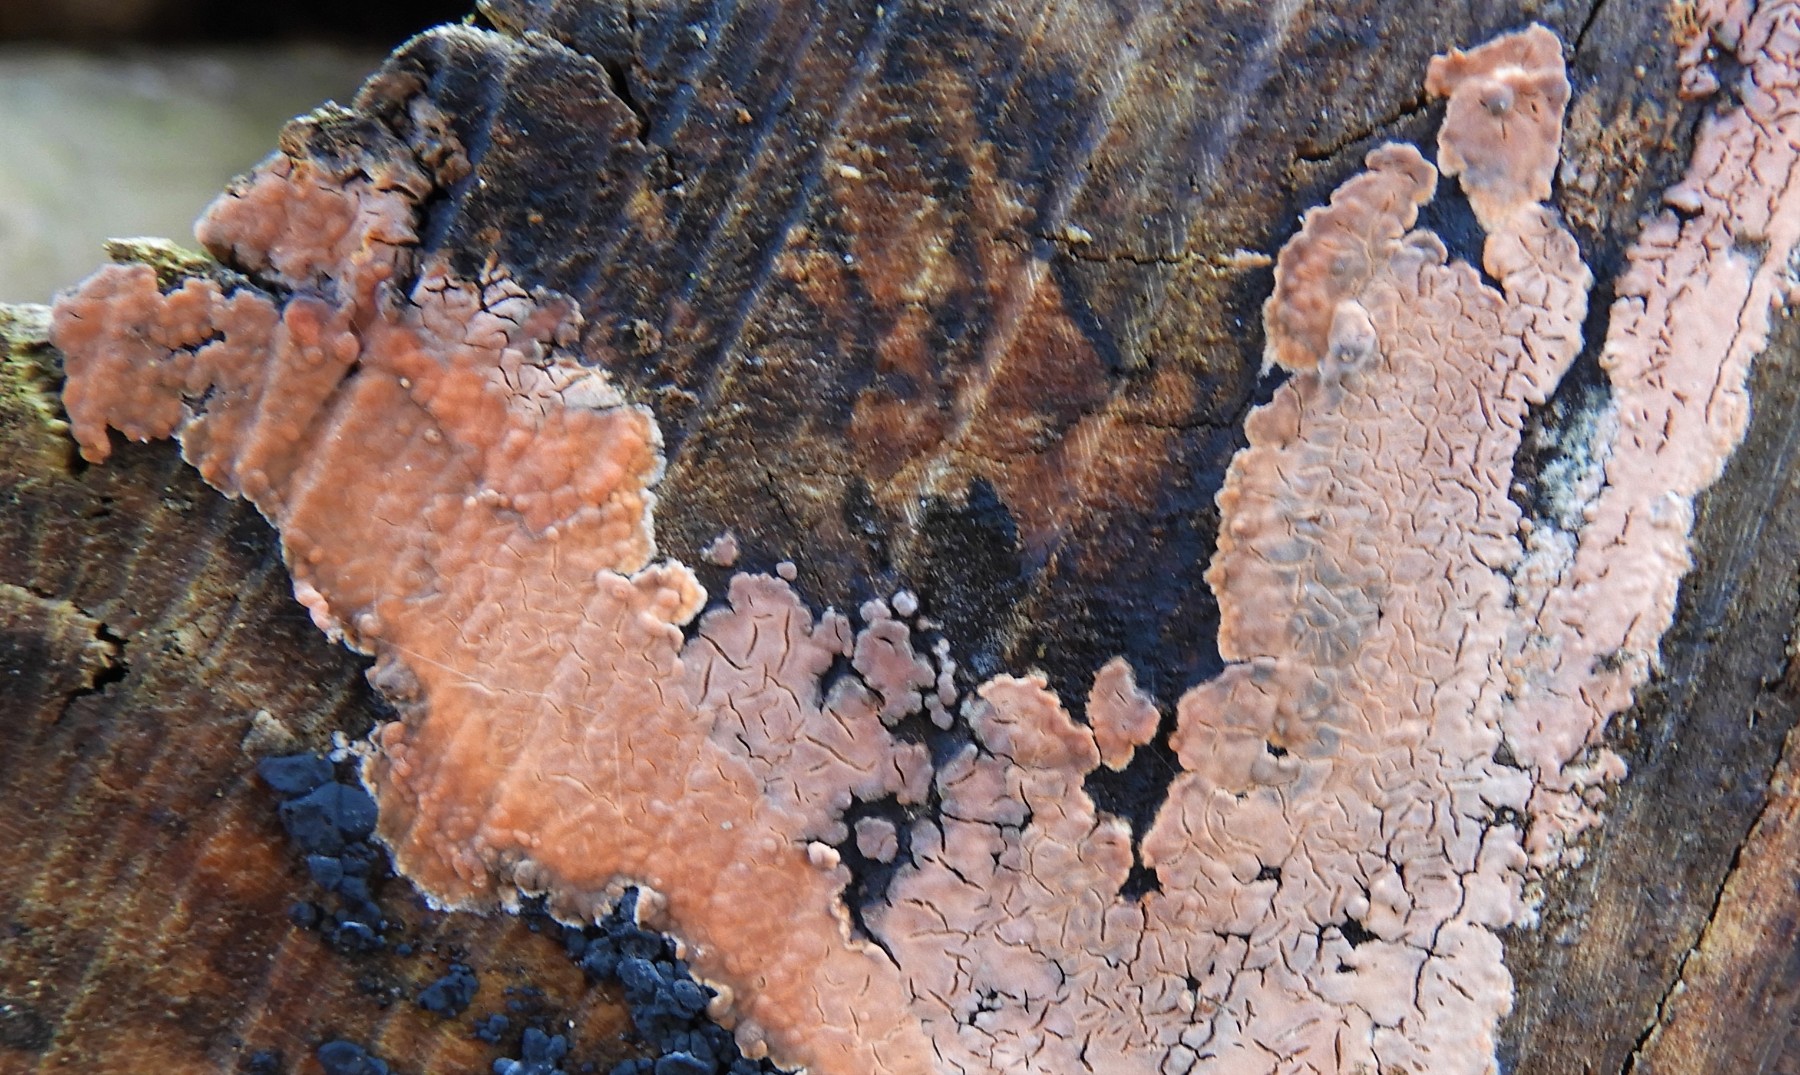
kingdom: Fungi
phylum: Basidiomycota
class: Agaricomycetes
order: Russulales
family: Peniophoraceae
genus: Peniophora
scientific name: Peniophora incarnata
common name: laksefarvet voksskind
